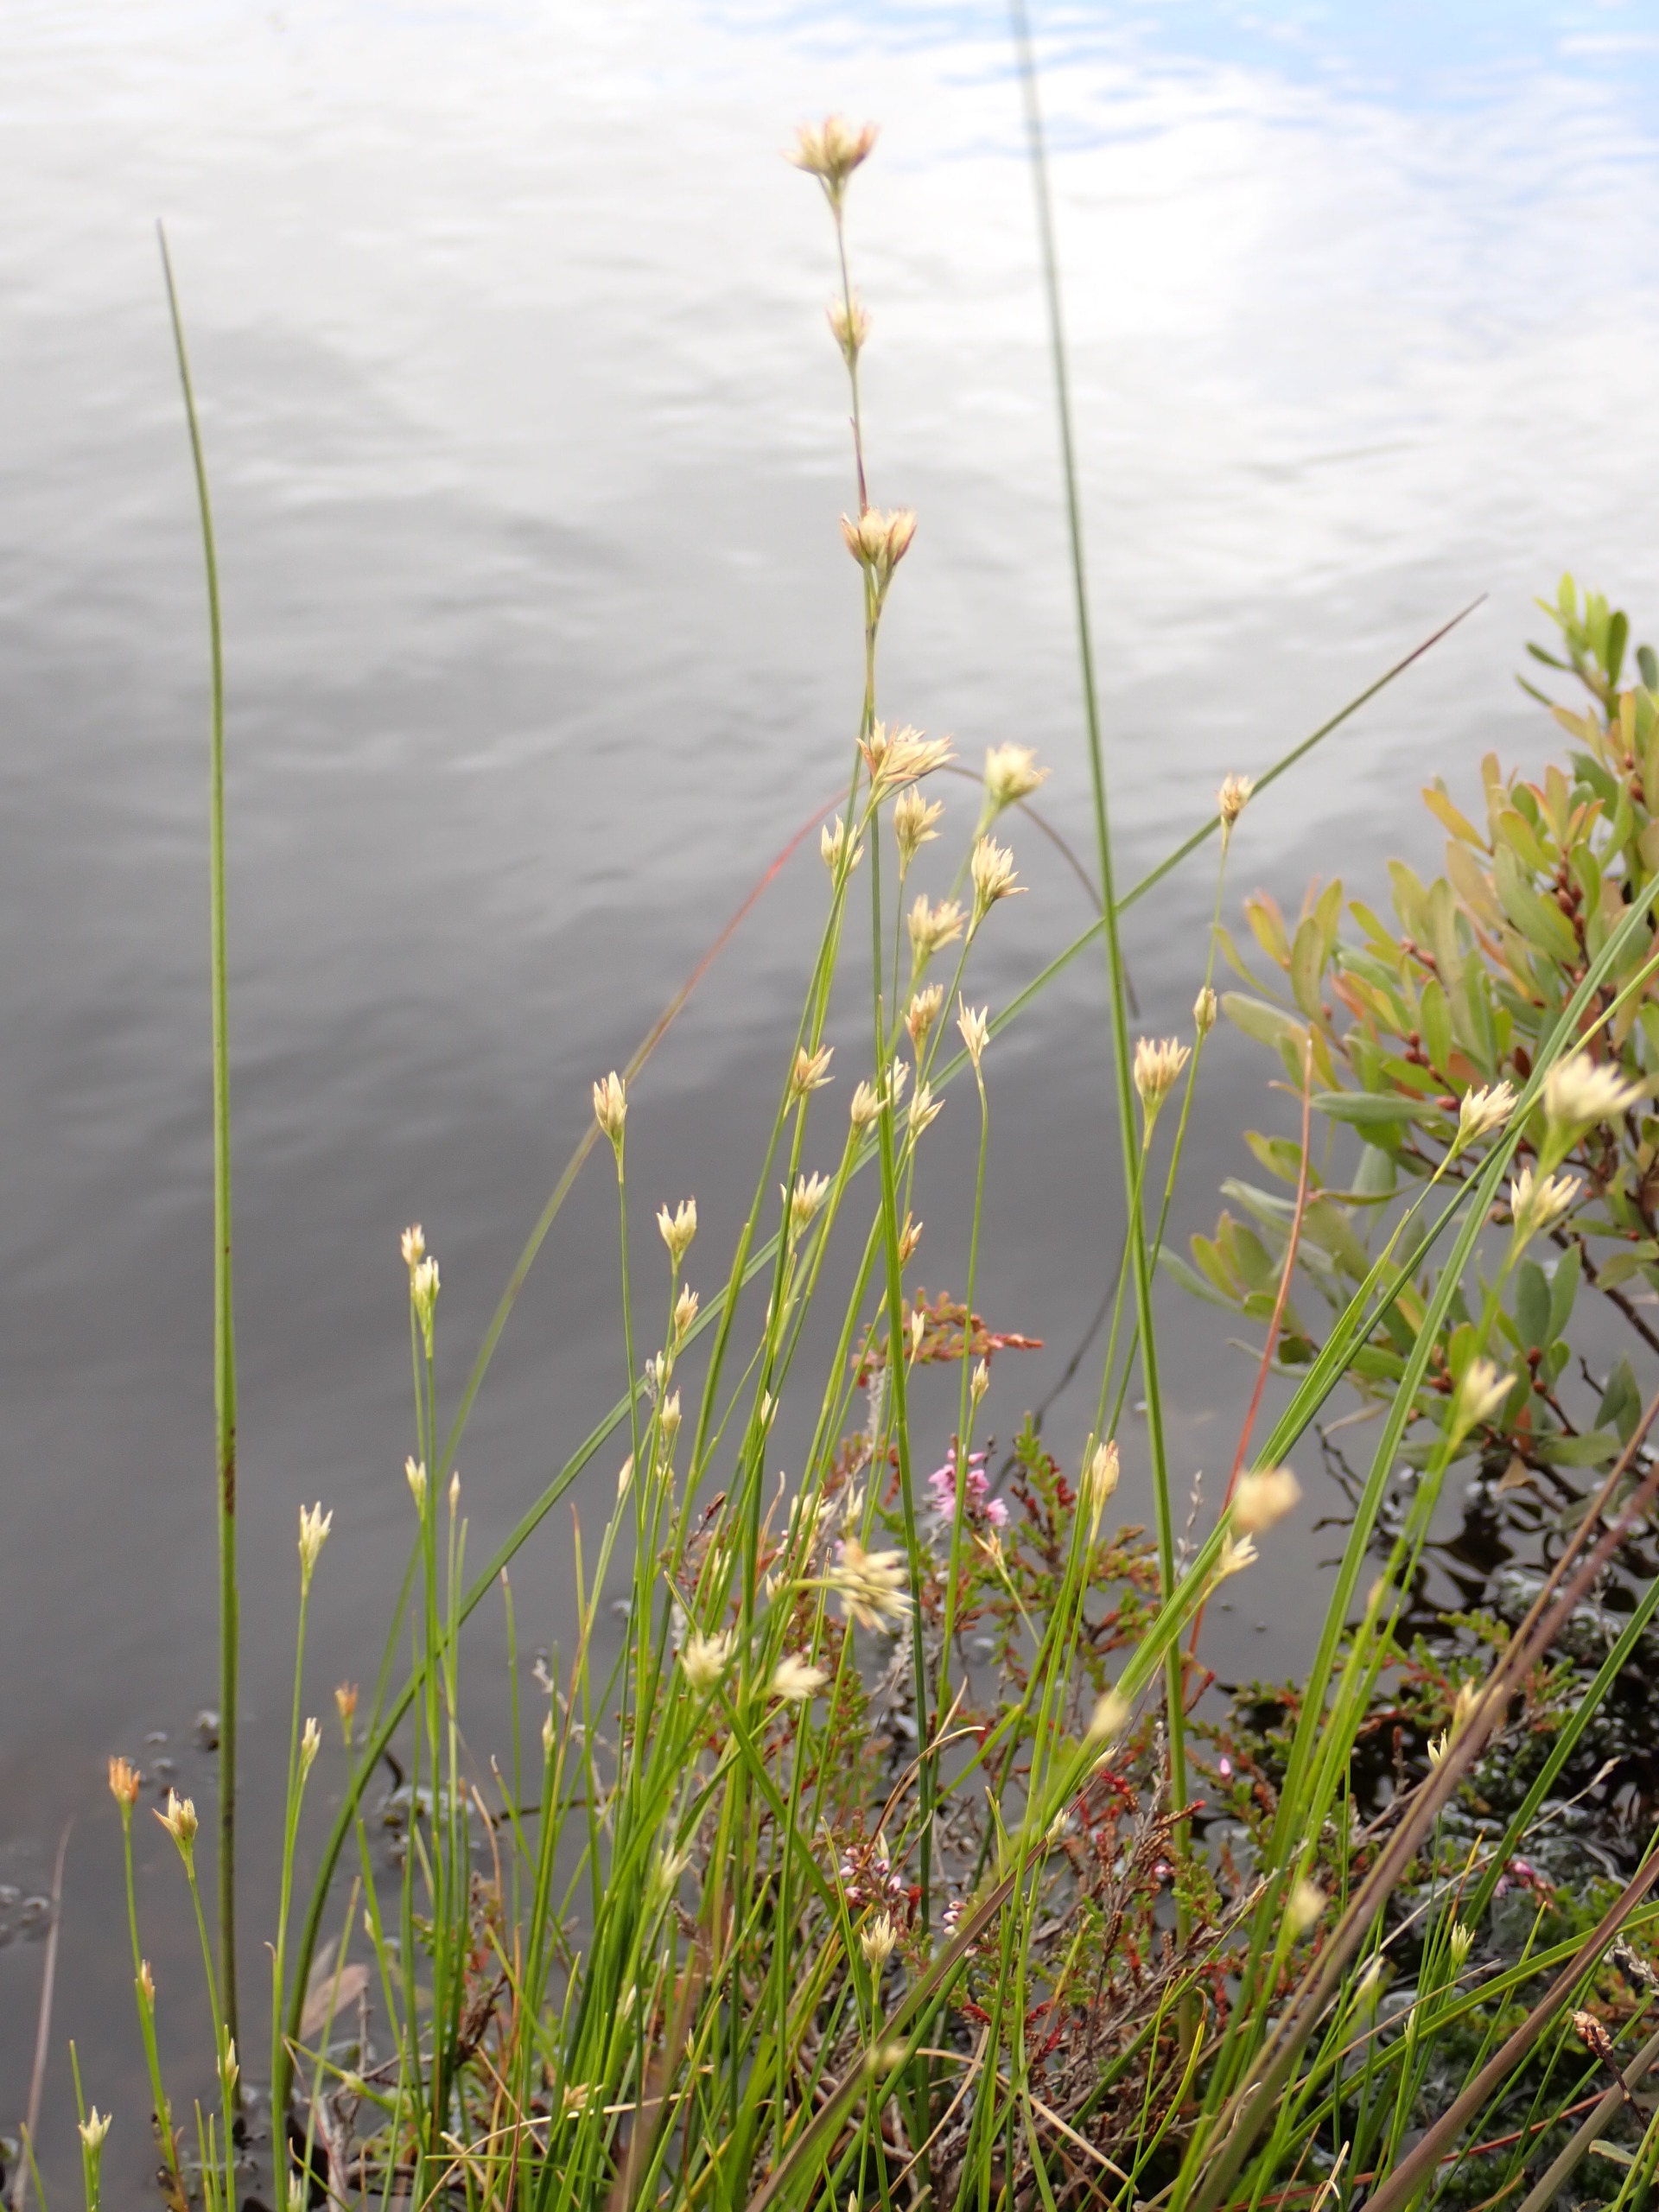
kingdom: Plantae
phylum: Tracheophyta
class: Liliopsida
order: Poales
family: Cyperaceae
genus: Rhynchospora
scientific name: Rhynchospora alba
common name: Hvid næbfrø
